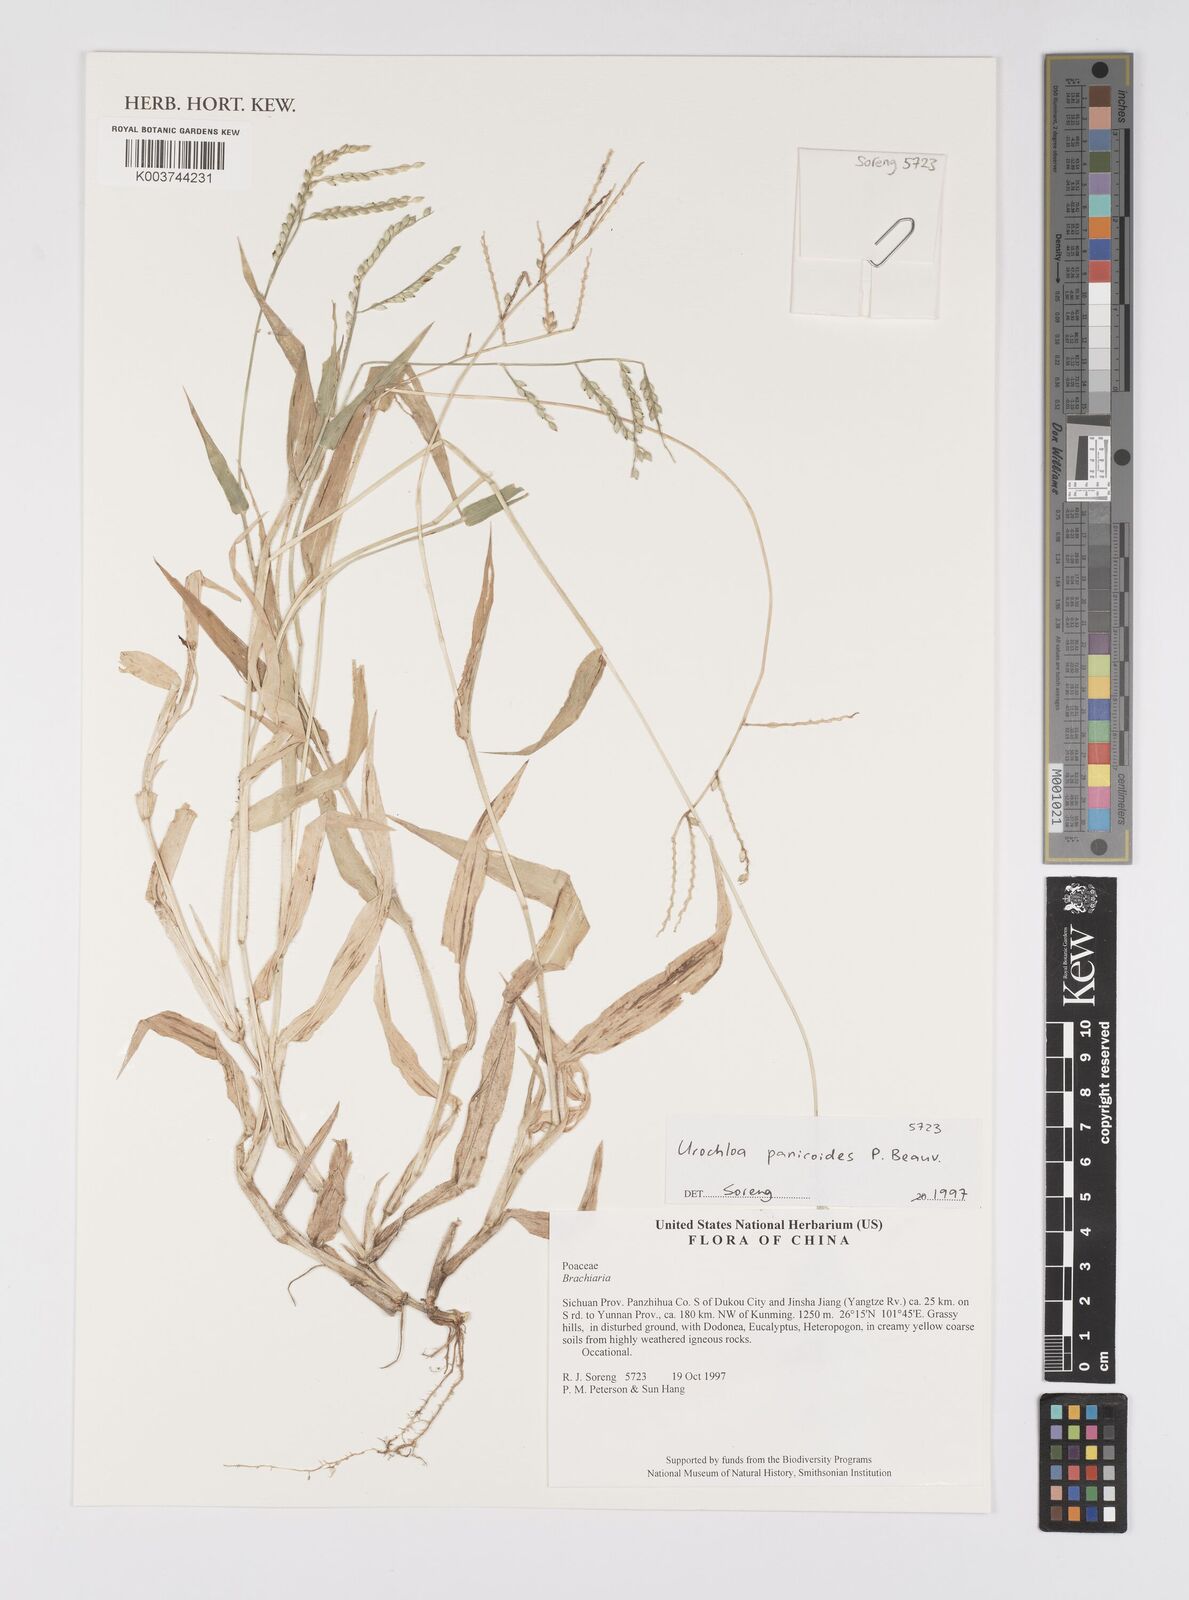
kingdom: Plantae
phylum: Tracheophyta
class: Liliopsida
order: Poales
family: Poaceae
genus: Urochloa
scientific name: Urochloa panicoides
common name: Sharp-flowered signal-grass
